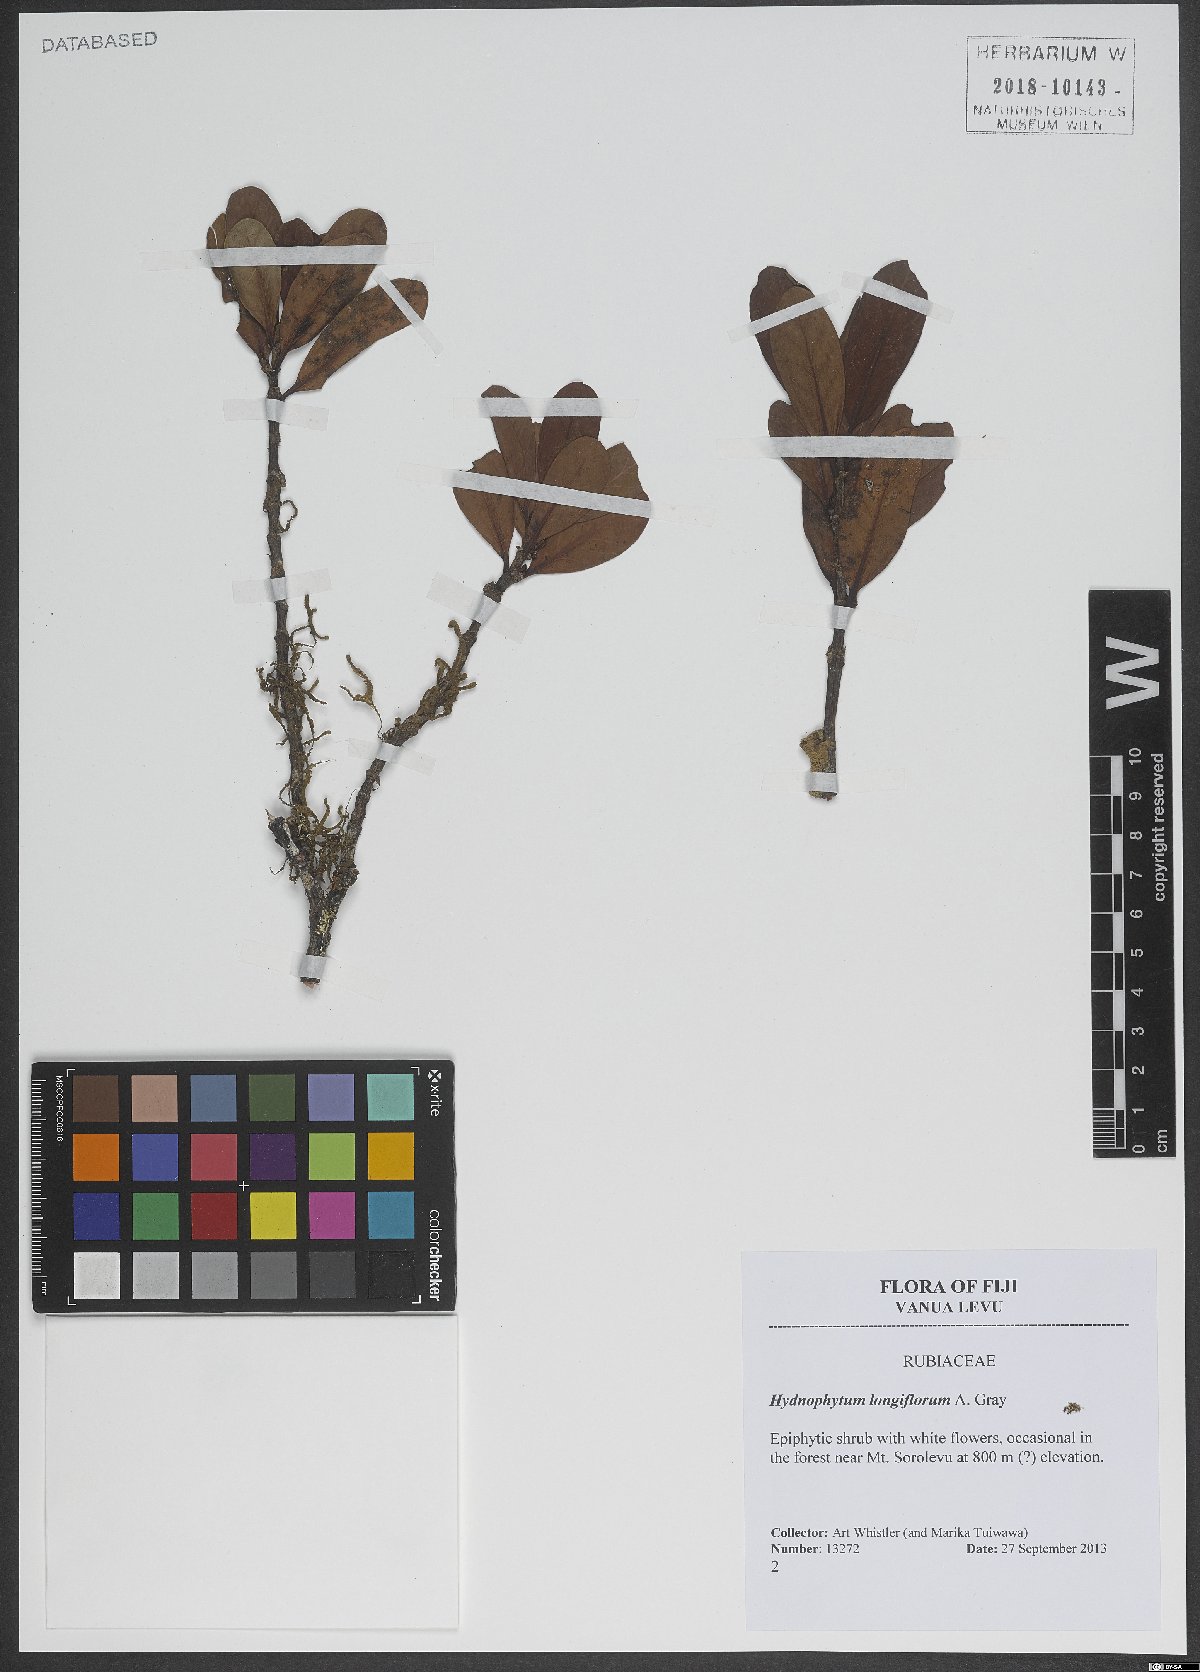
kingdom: Plantae
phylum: Tracheophyta
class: Magnoliopsida
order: Gentianales
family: Rubiaceae
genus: Hydnophytum
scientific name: Hydnophytum longiflorum
